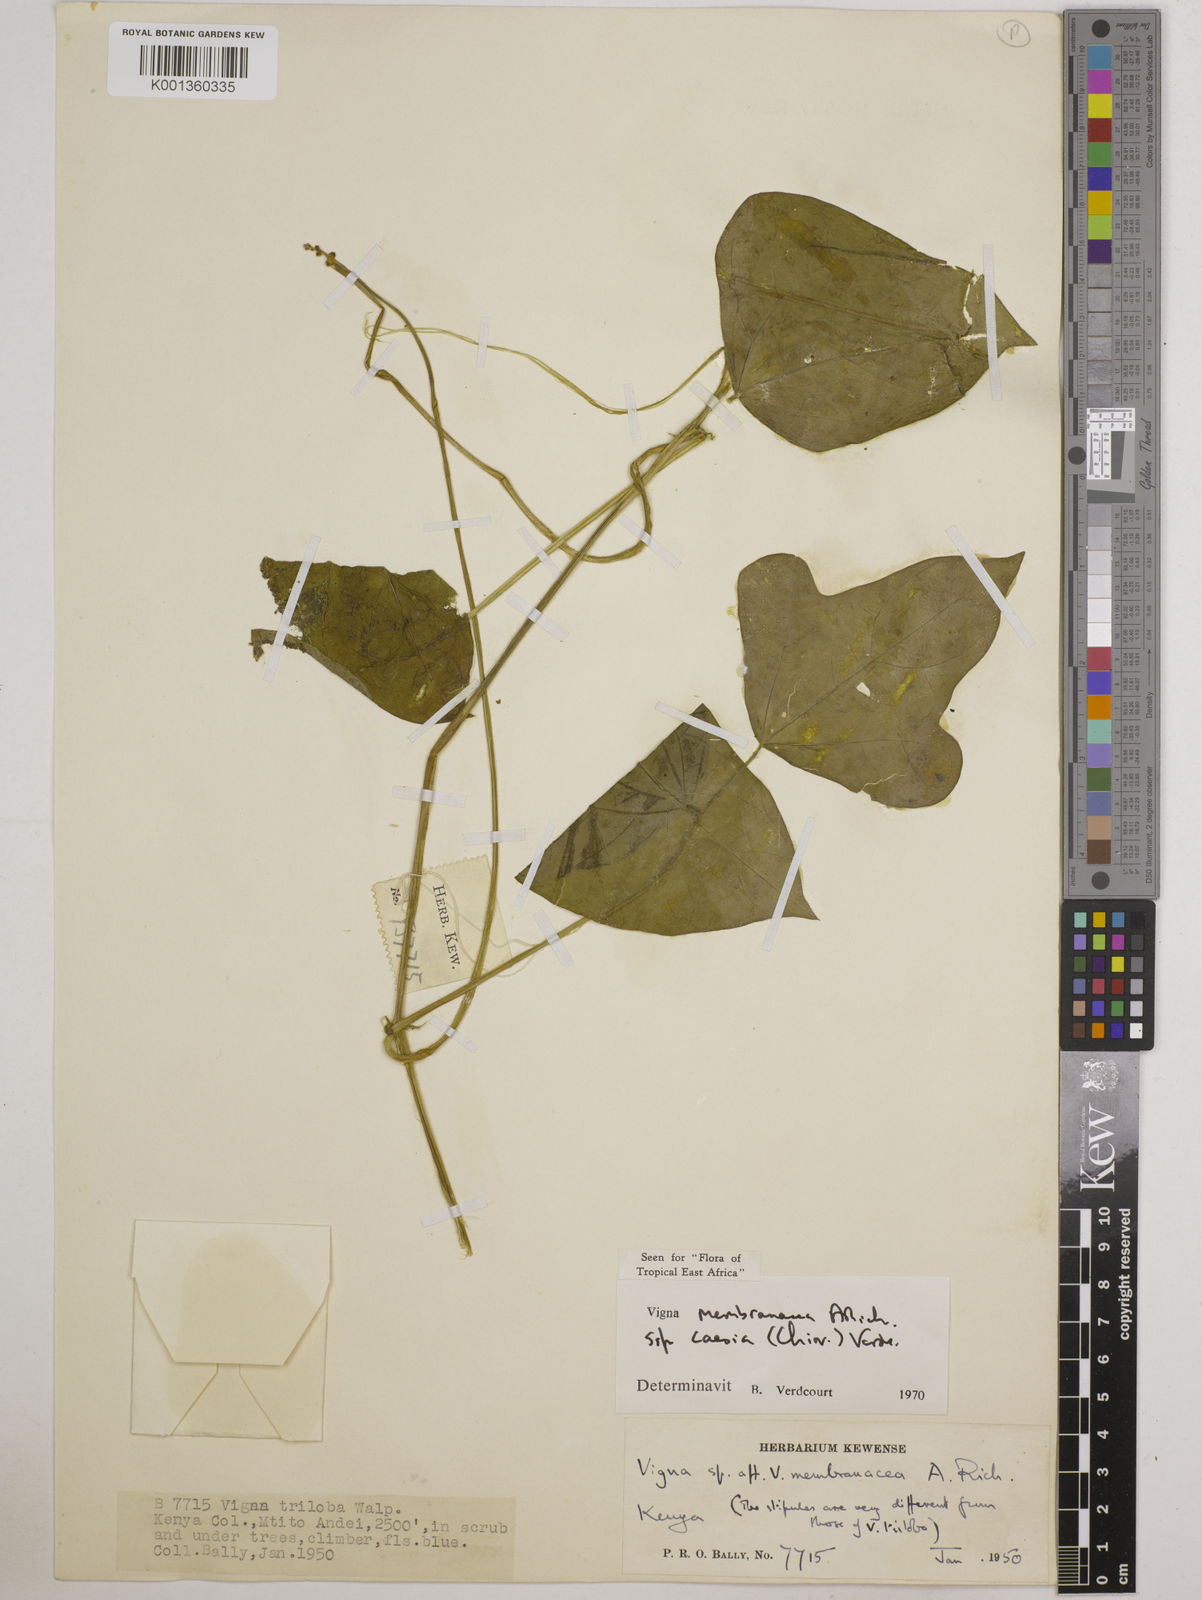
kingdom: Plantae
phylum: Tracheophyta
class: Magnoliopsida
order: Fabales
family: Fabaceae
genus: Vigna
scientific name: Vigna
